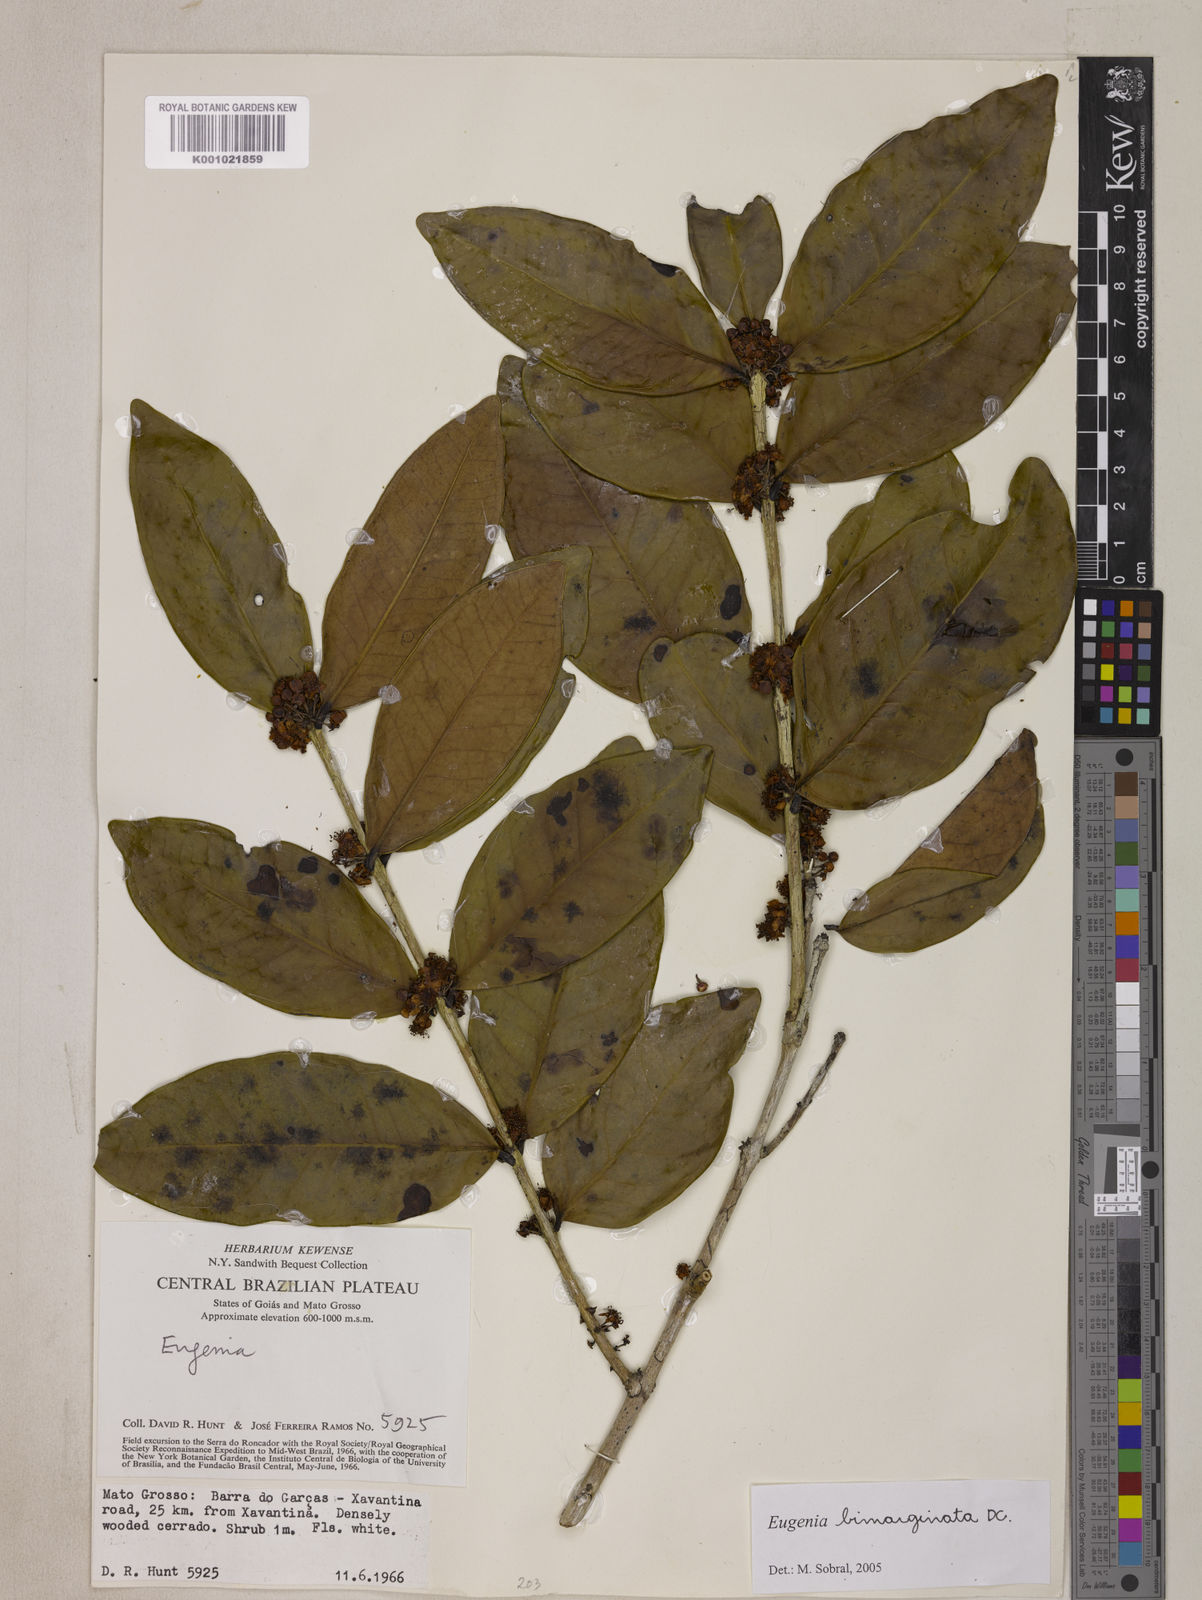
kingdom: Plantae
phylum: Tracheophyta
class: Magnoliopsida
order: Myrtales
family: Myrtaceae
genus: Eugenia
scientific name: Eugenia bimarginata
